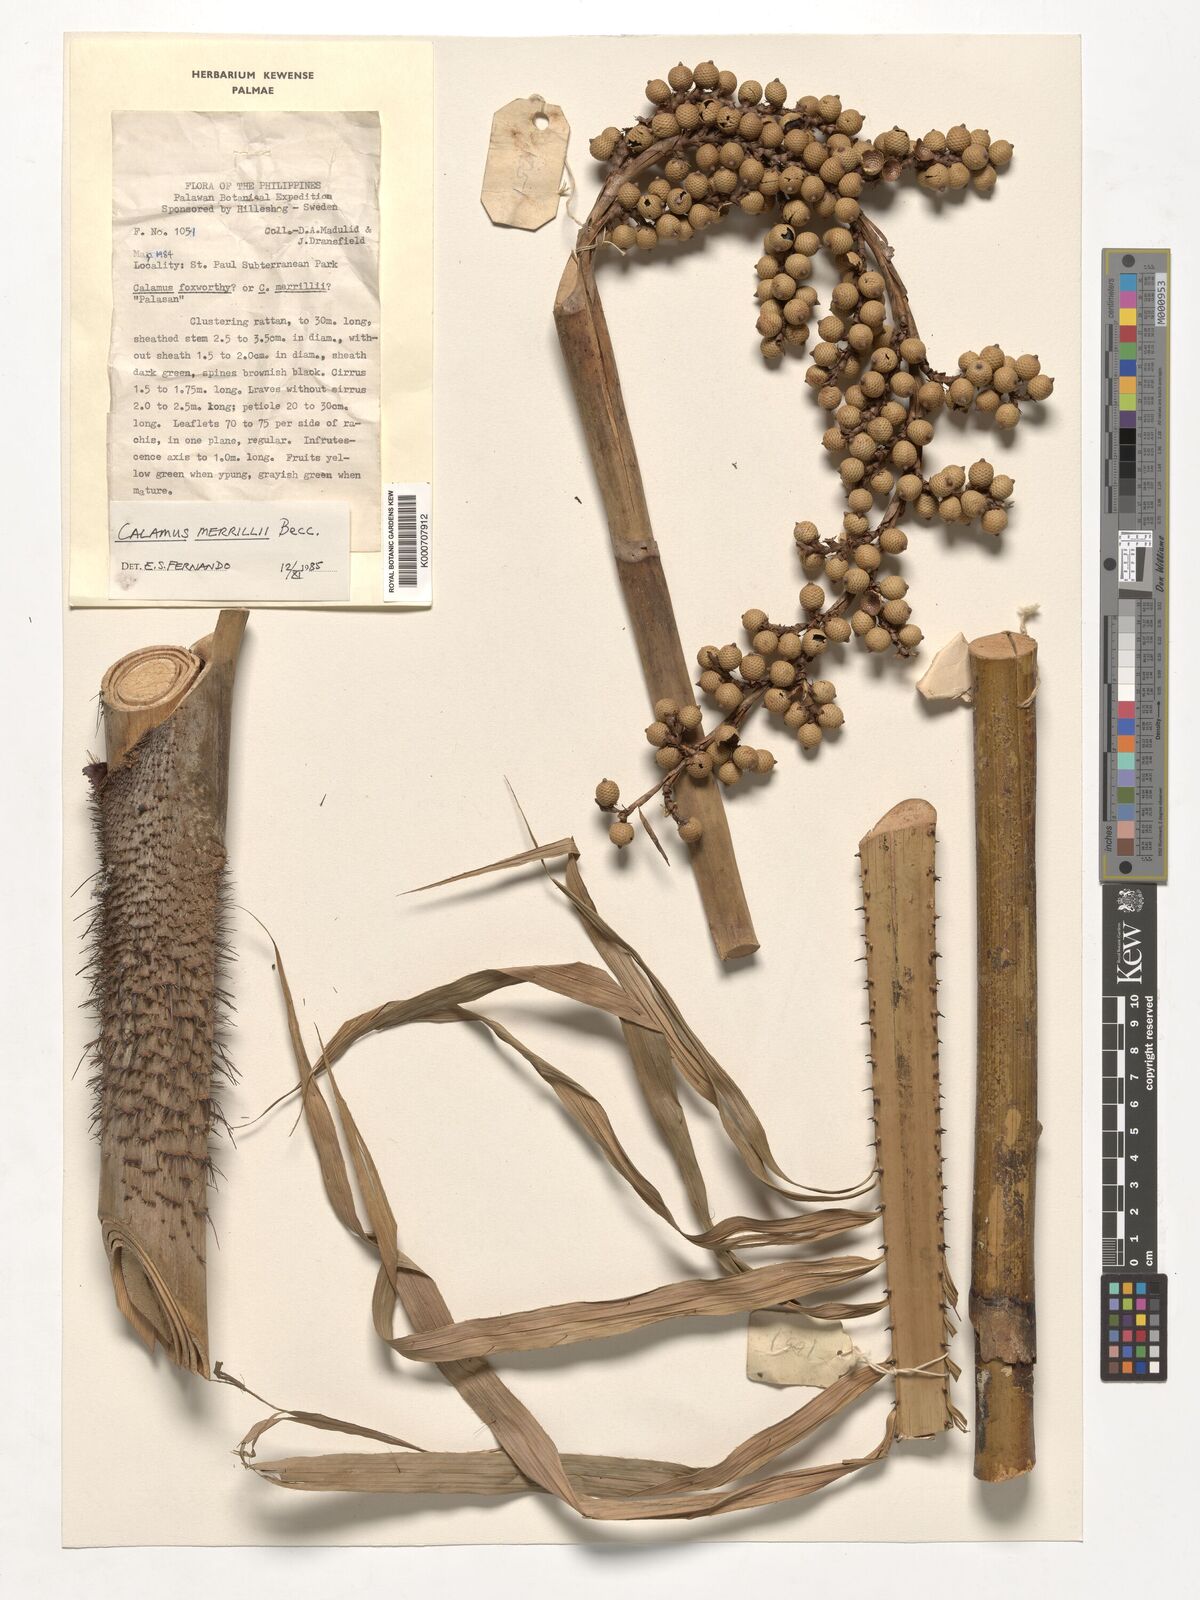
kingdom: Plantae
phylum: Tracheophyta
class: Liliopsida
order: Arecales
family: Arecaceae
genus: Calamus
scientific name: Calamus zollingeri
